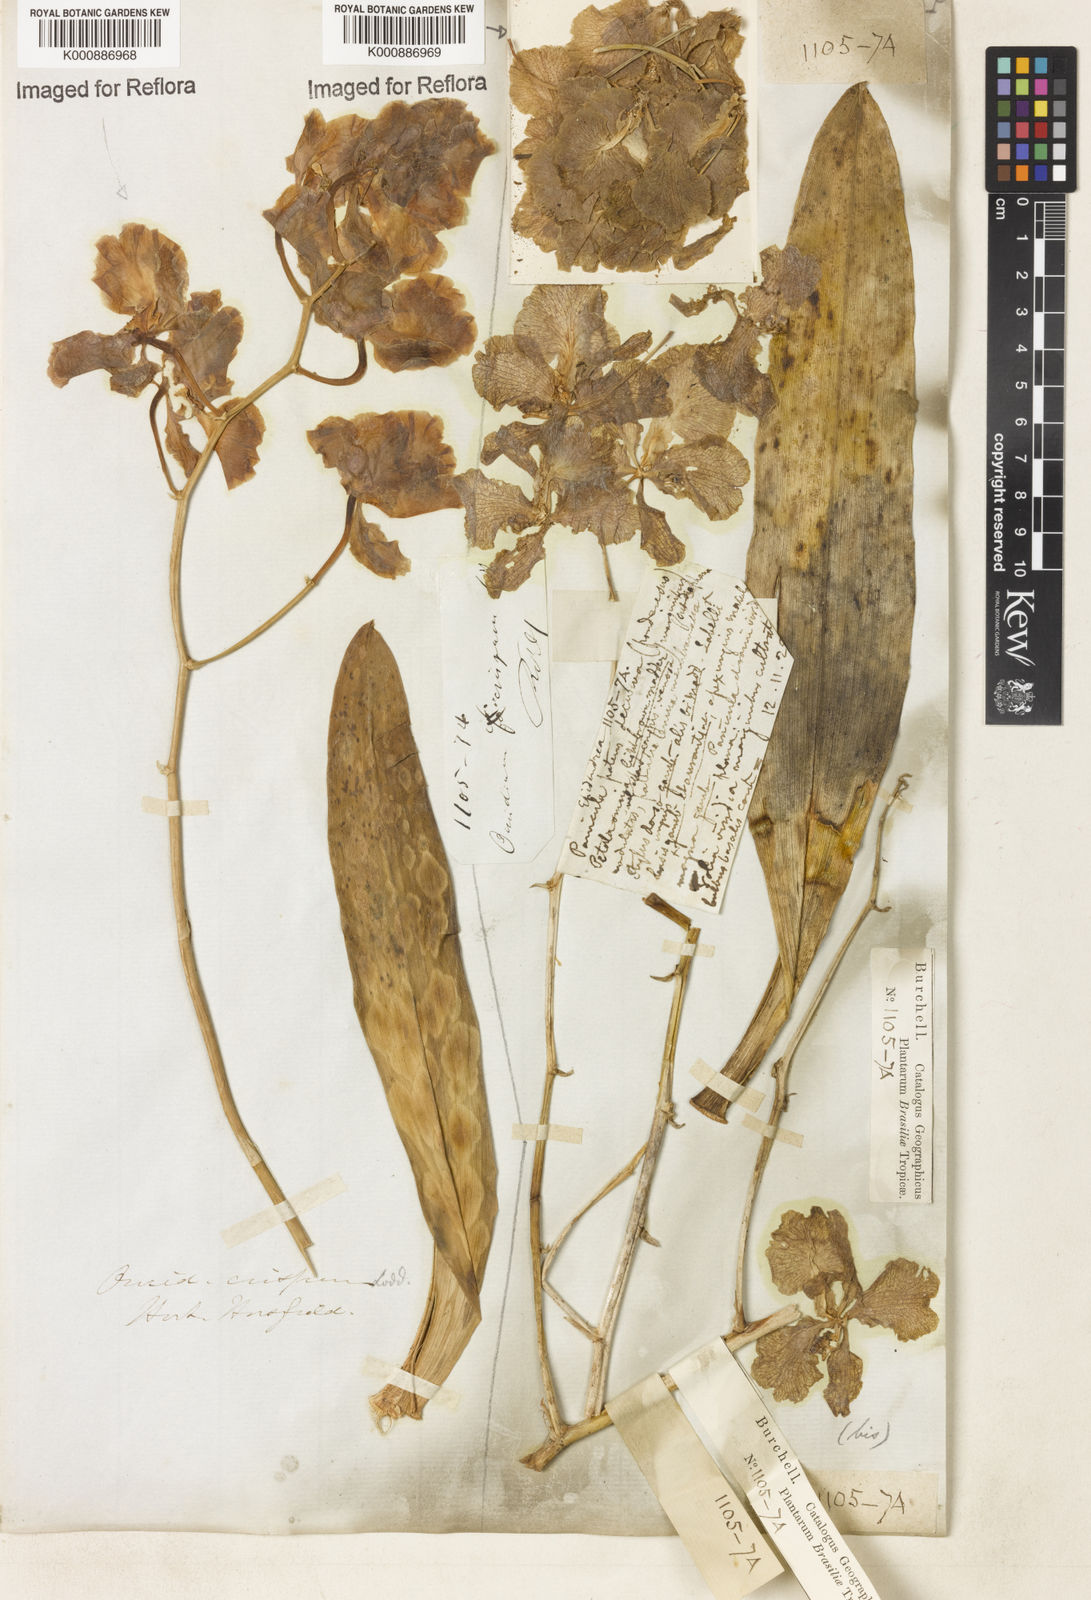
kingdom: Plantae
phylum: Tracheophyta
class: Liliopsida
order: Asparagales
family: Orchidaceae
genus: Gomesa
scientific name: Gomesa imperatoris-maximiliani
